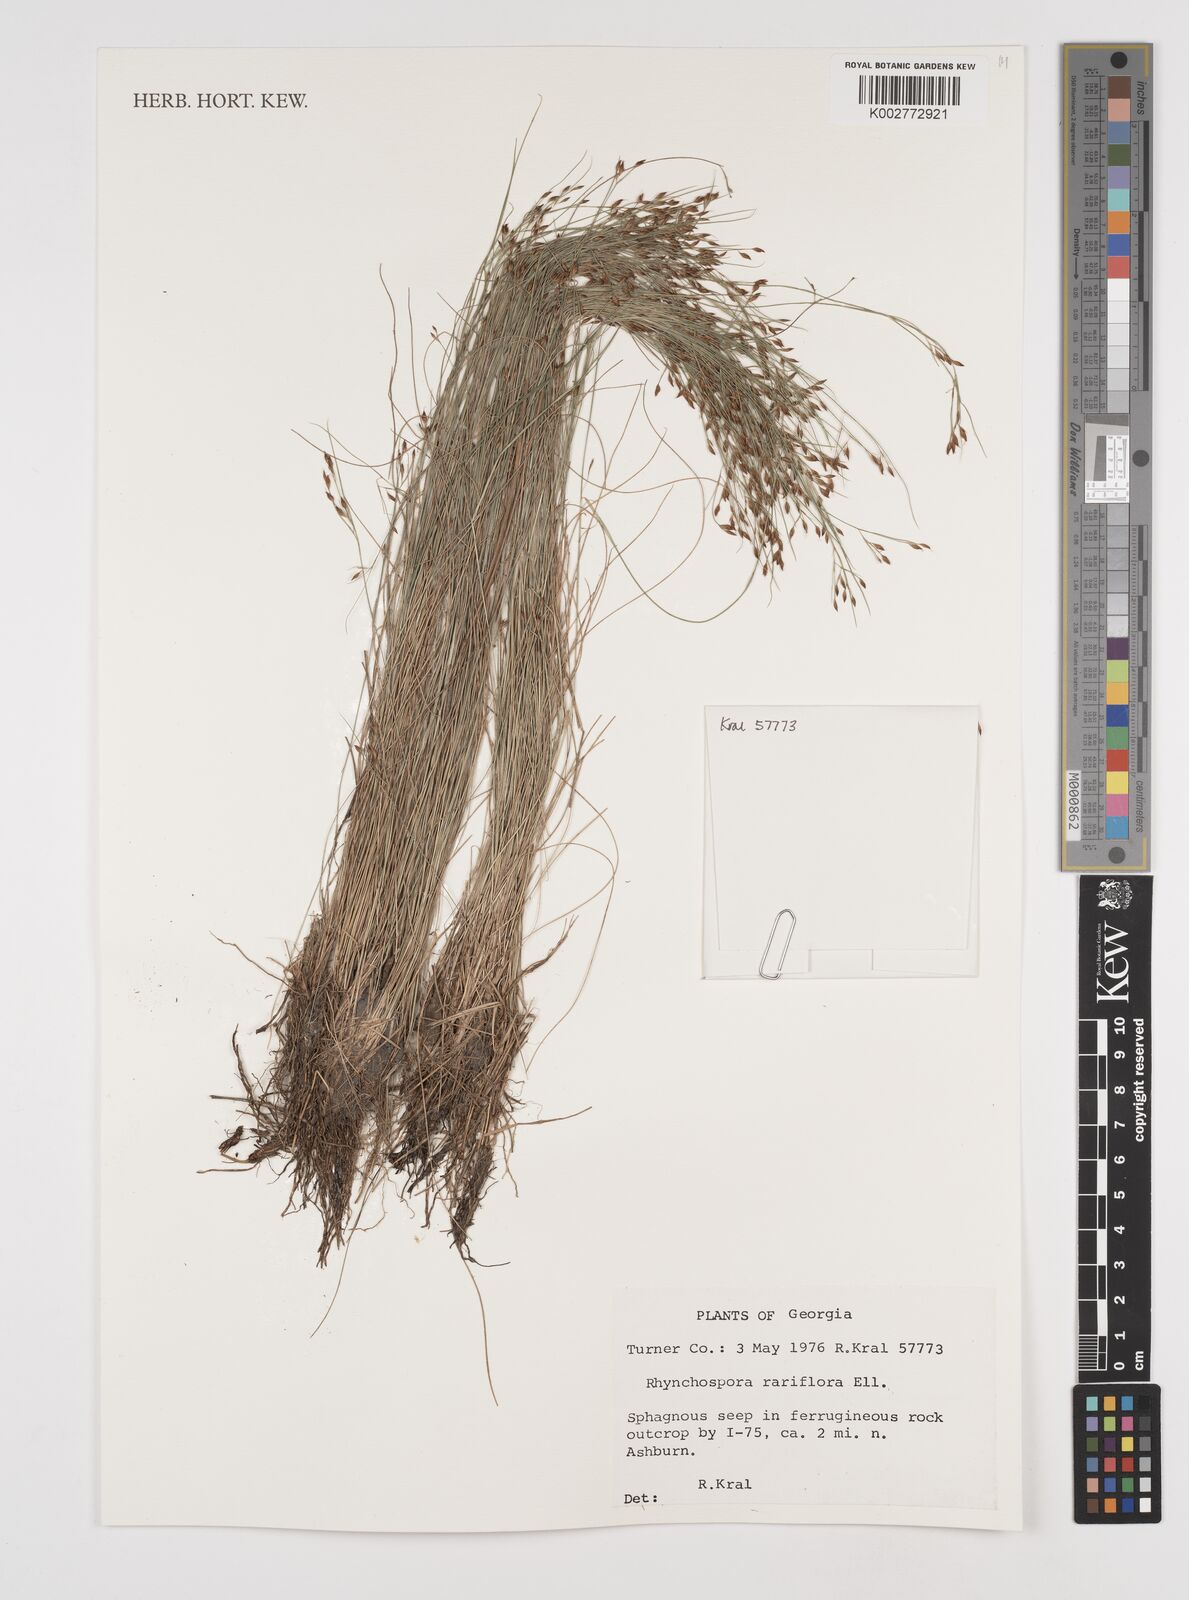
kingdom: Plantae
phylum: Tracheophyta
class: Liliopsida
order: Poales
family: Cyperaceae
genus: Rhynchospora
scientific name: Rhynchospora rariflora
